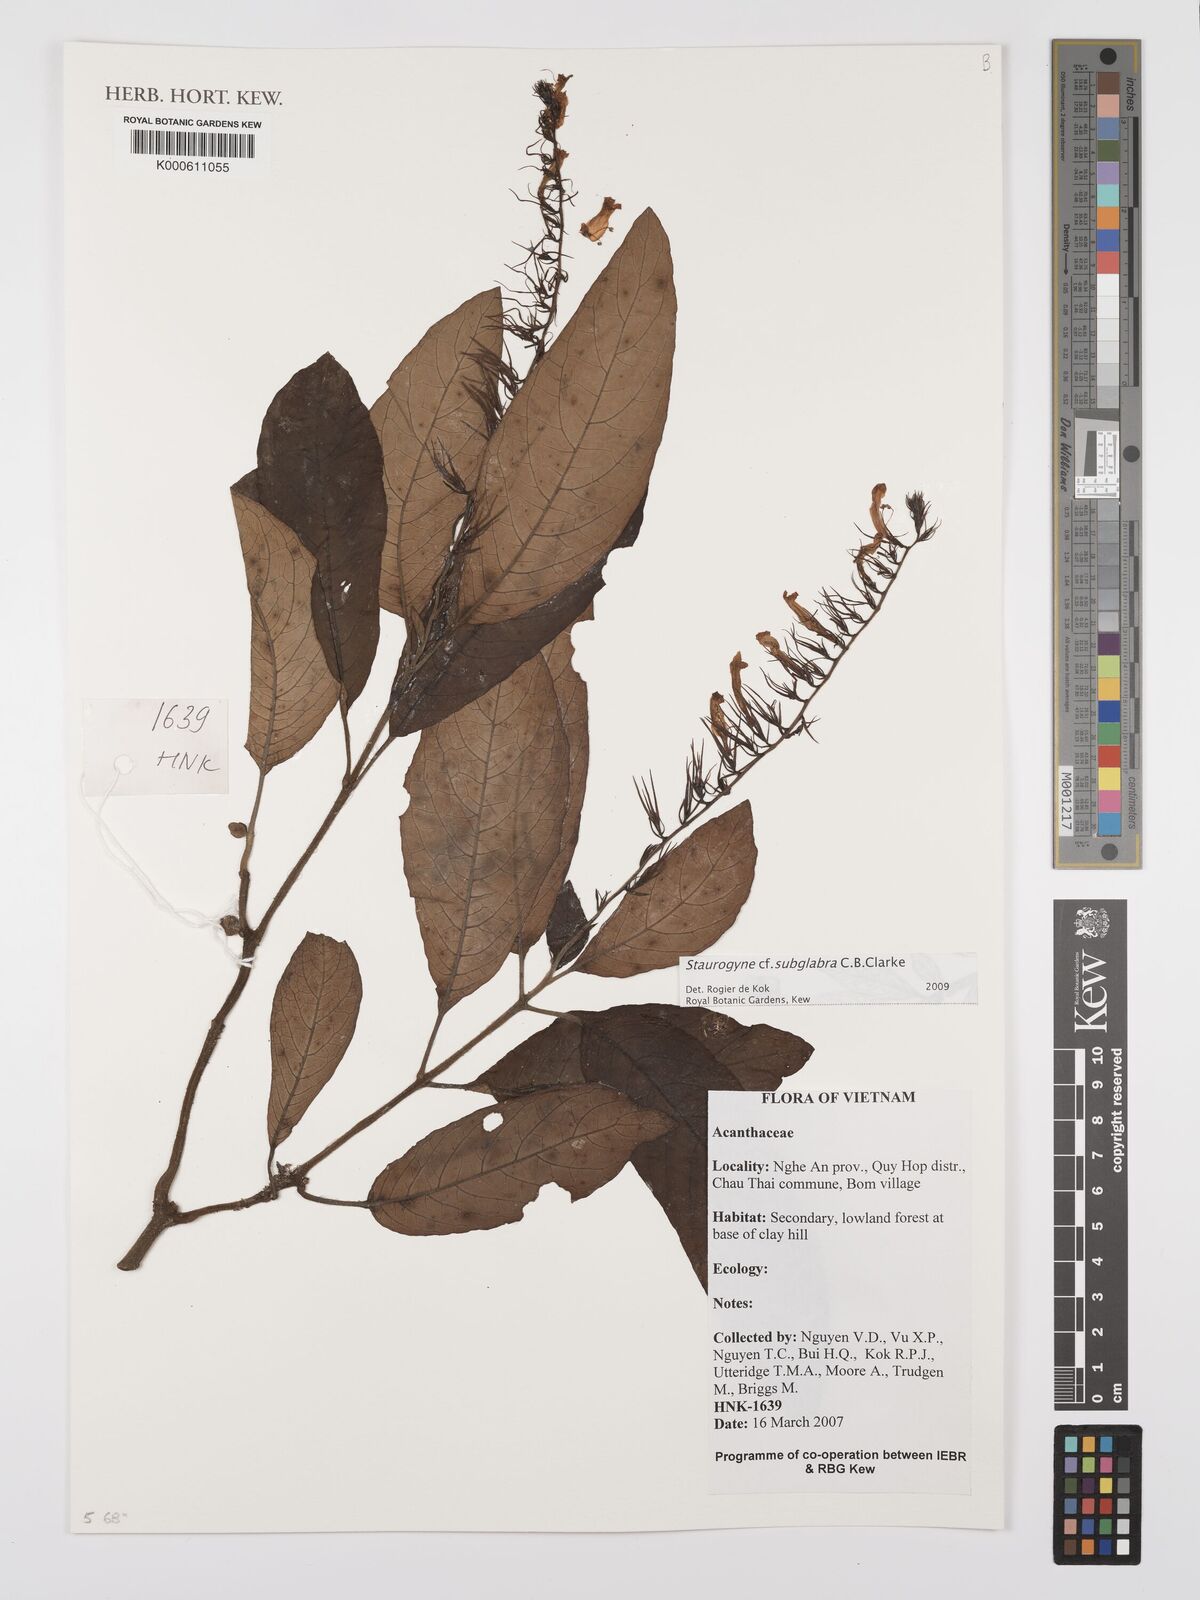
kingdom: Plantae
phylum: Tracheophyta
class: Magnoliopsida
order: Lamiales
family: Acanthaceae
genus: Staurogyne
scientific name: Staurogyne subglabra
